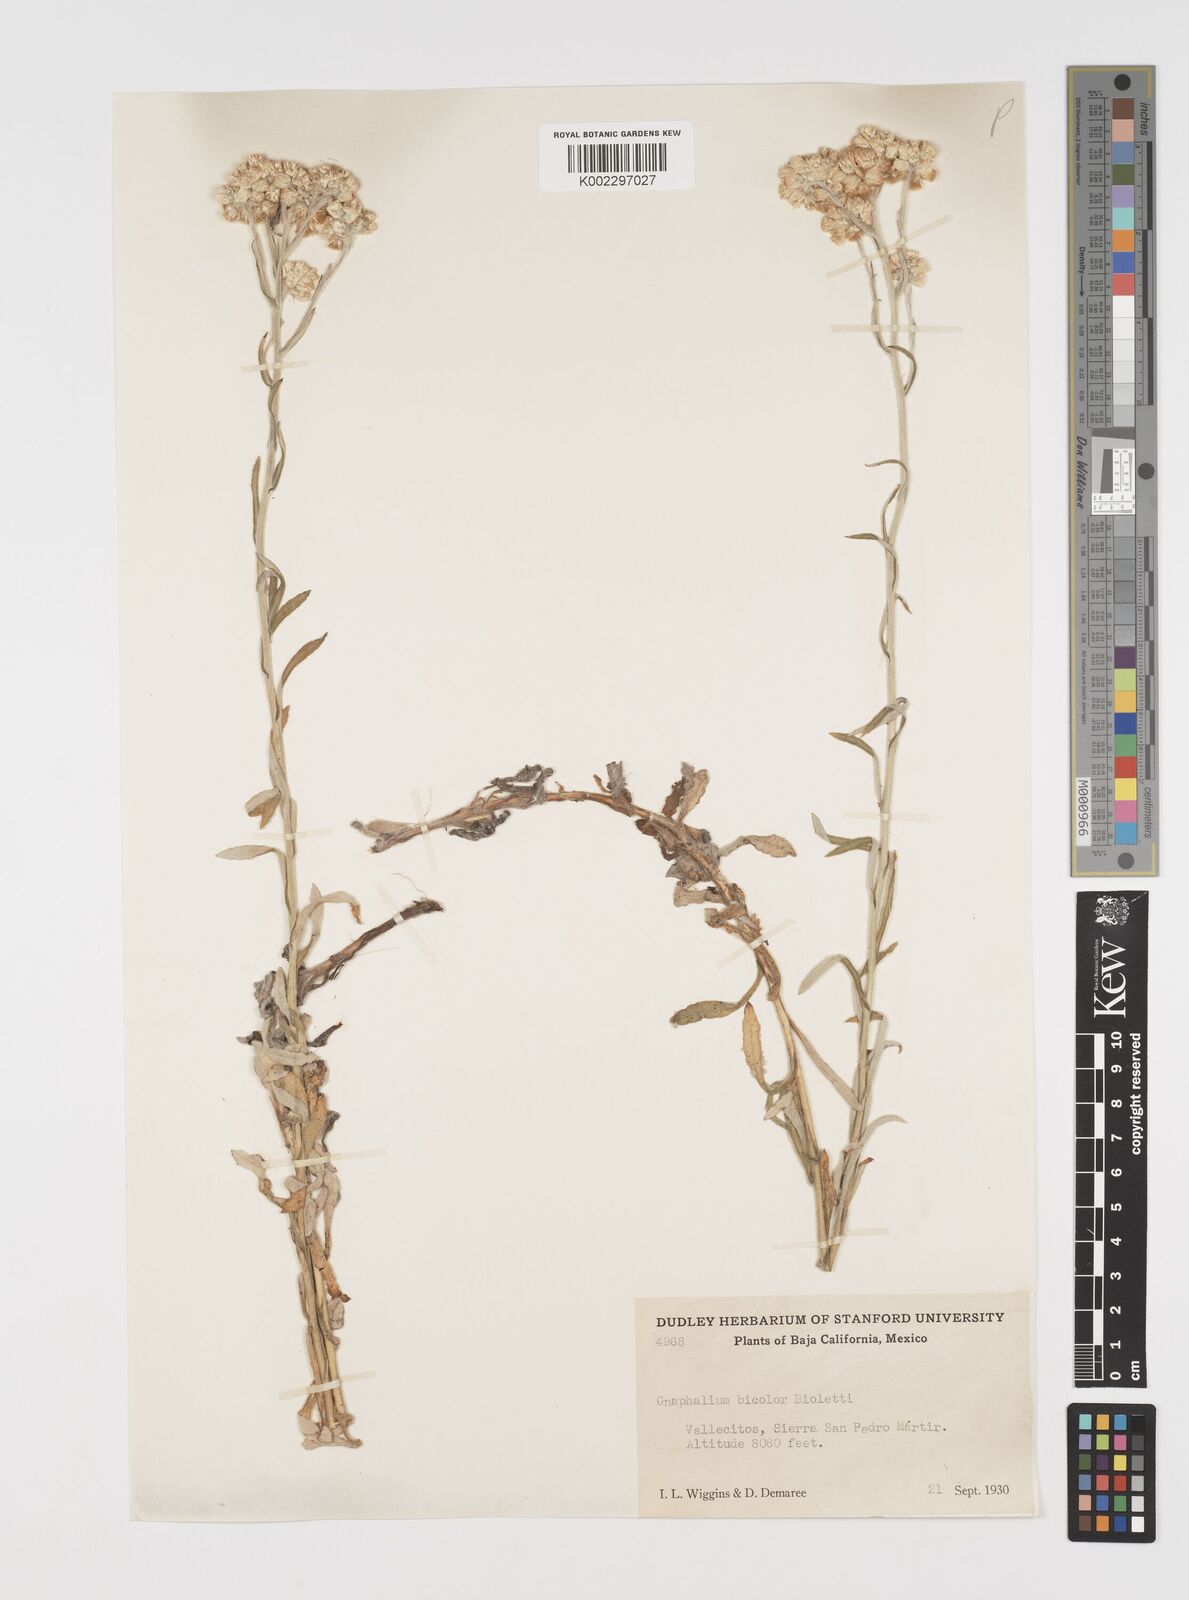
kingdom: Plantae
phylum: Tracheophyta
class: Magnoliopsida
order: Asterales
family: Asteraceae
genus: Pseudognaphalium
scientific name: Pseudognaphalium biolettii
